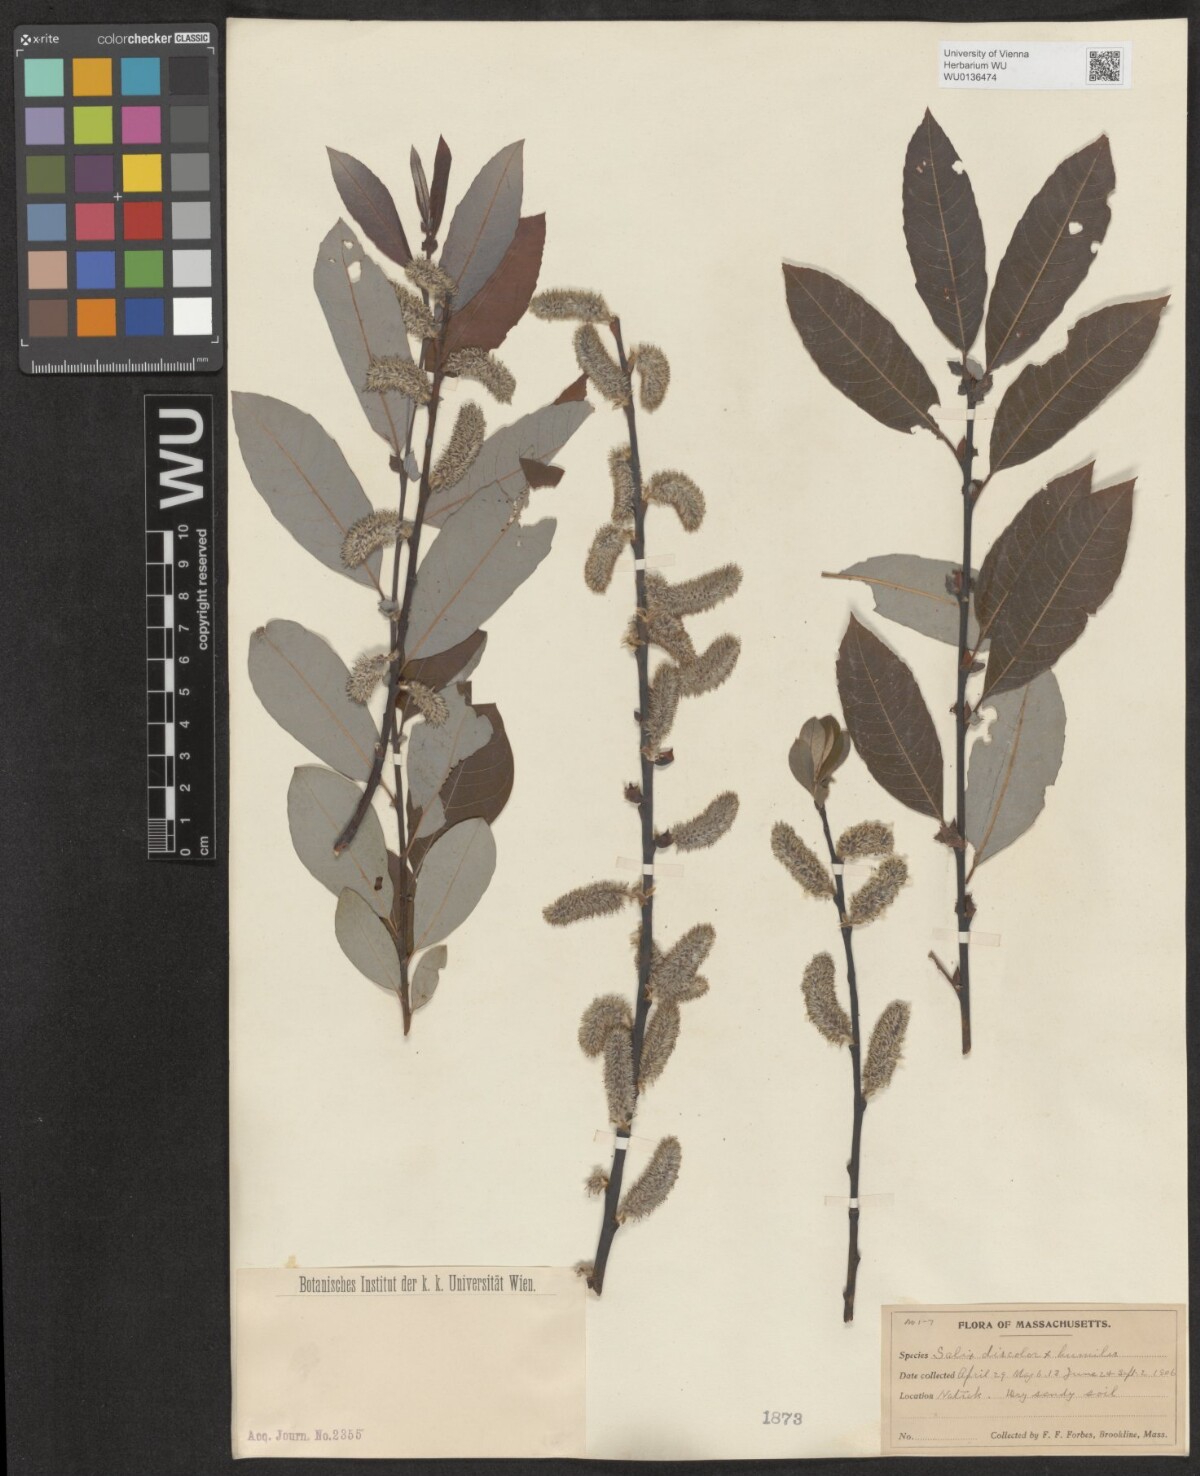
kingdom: Plantae
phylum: Tracheophyta
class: Magnoliopsida
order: Malpighiales
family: Salicaceae
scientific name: Salicaceae
